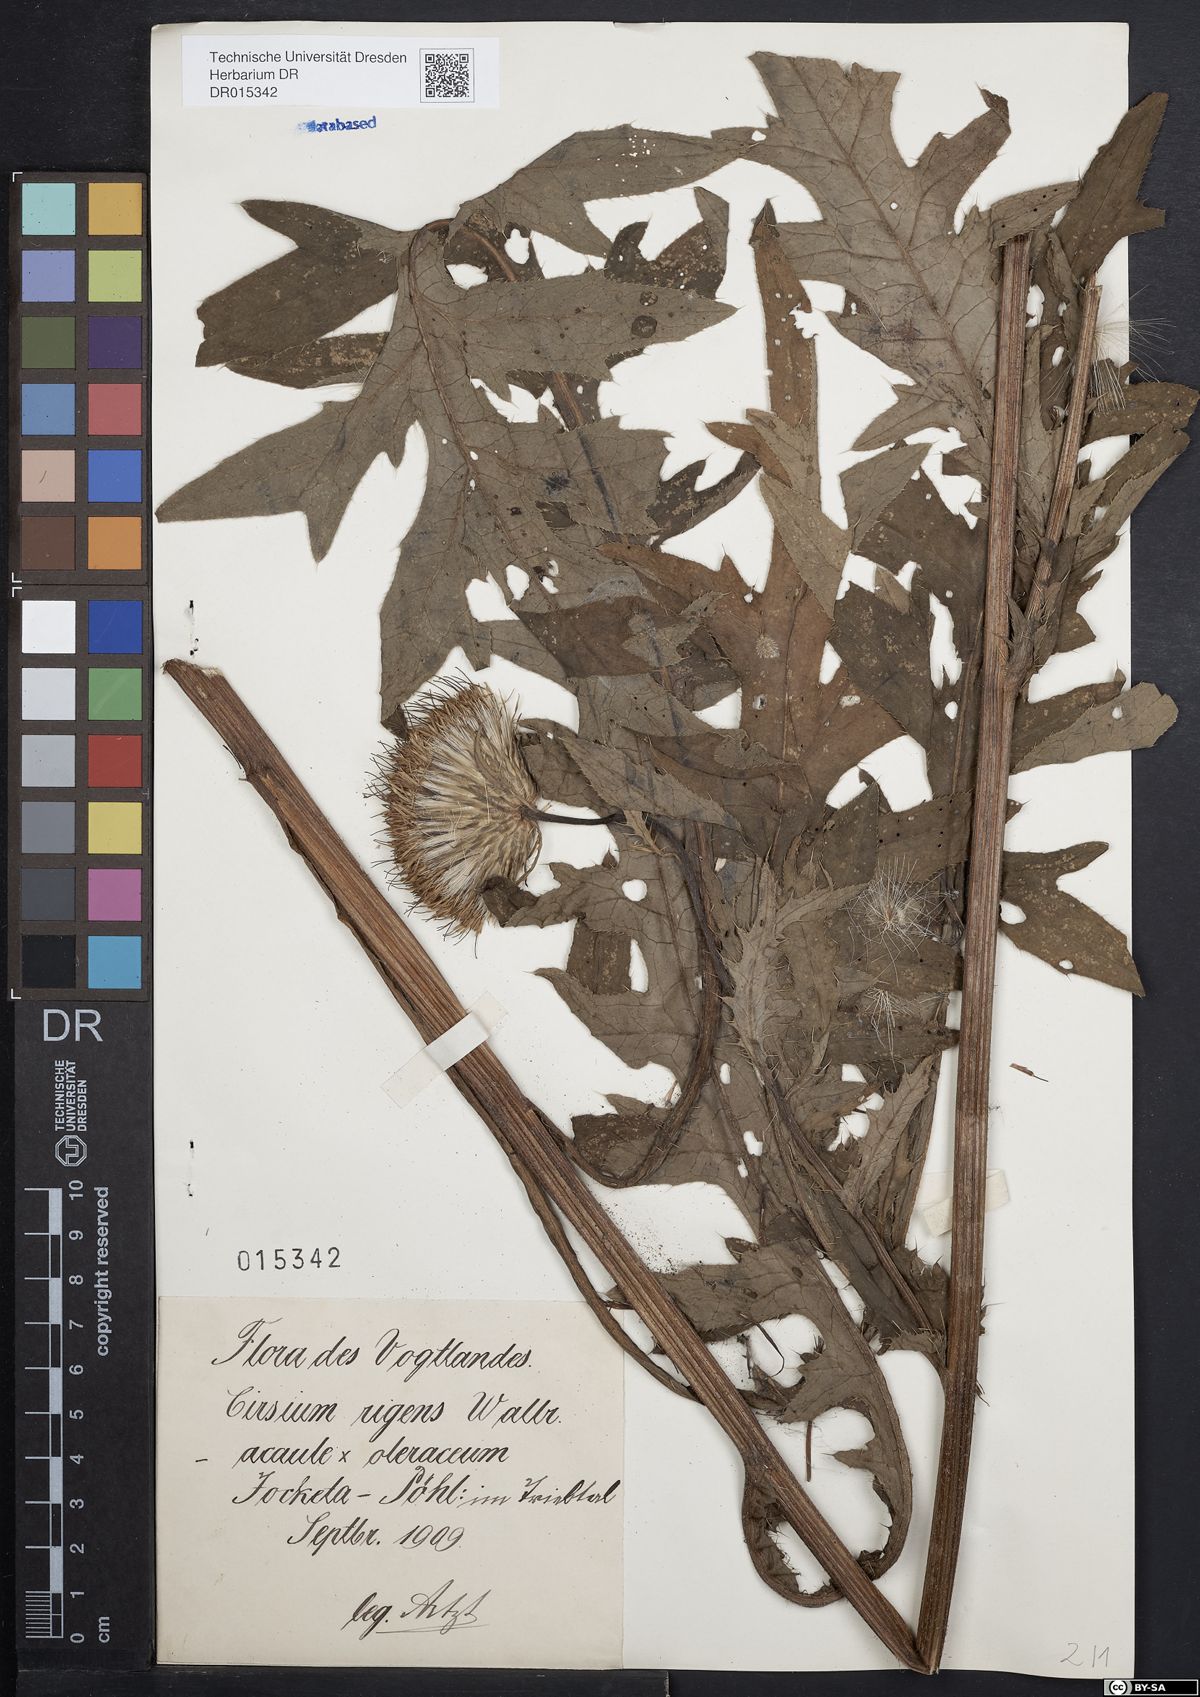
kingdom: Plantae
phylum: Tracheophyta
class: Magnoliopsida
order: Asterales
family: Asteraceae
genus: Cirsium
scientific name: Cirsium rigens
